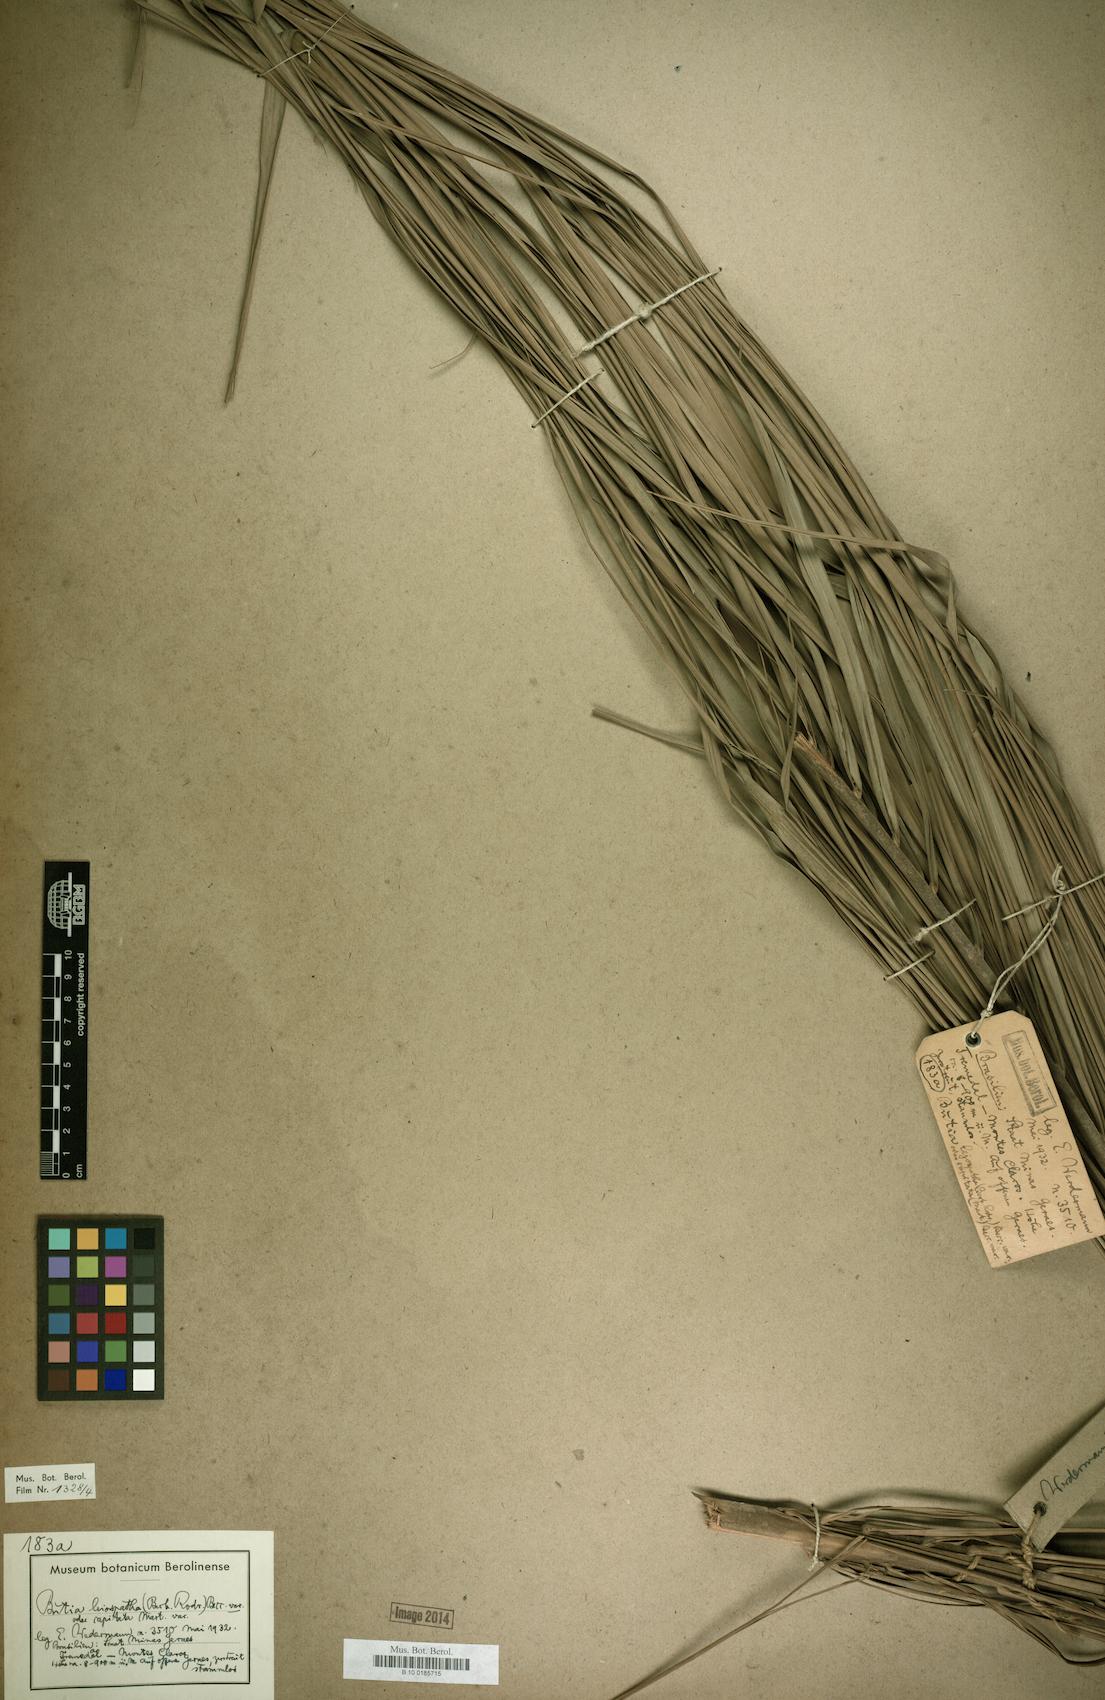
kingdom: Plantae
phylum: Tracheophyta
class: Liliopsida
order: Arecales
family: Arecaceae
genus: Butia
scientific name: Butia capitata
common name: South american jelly palm
